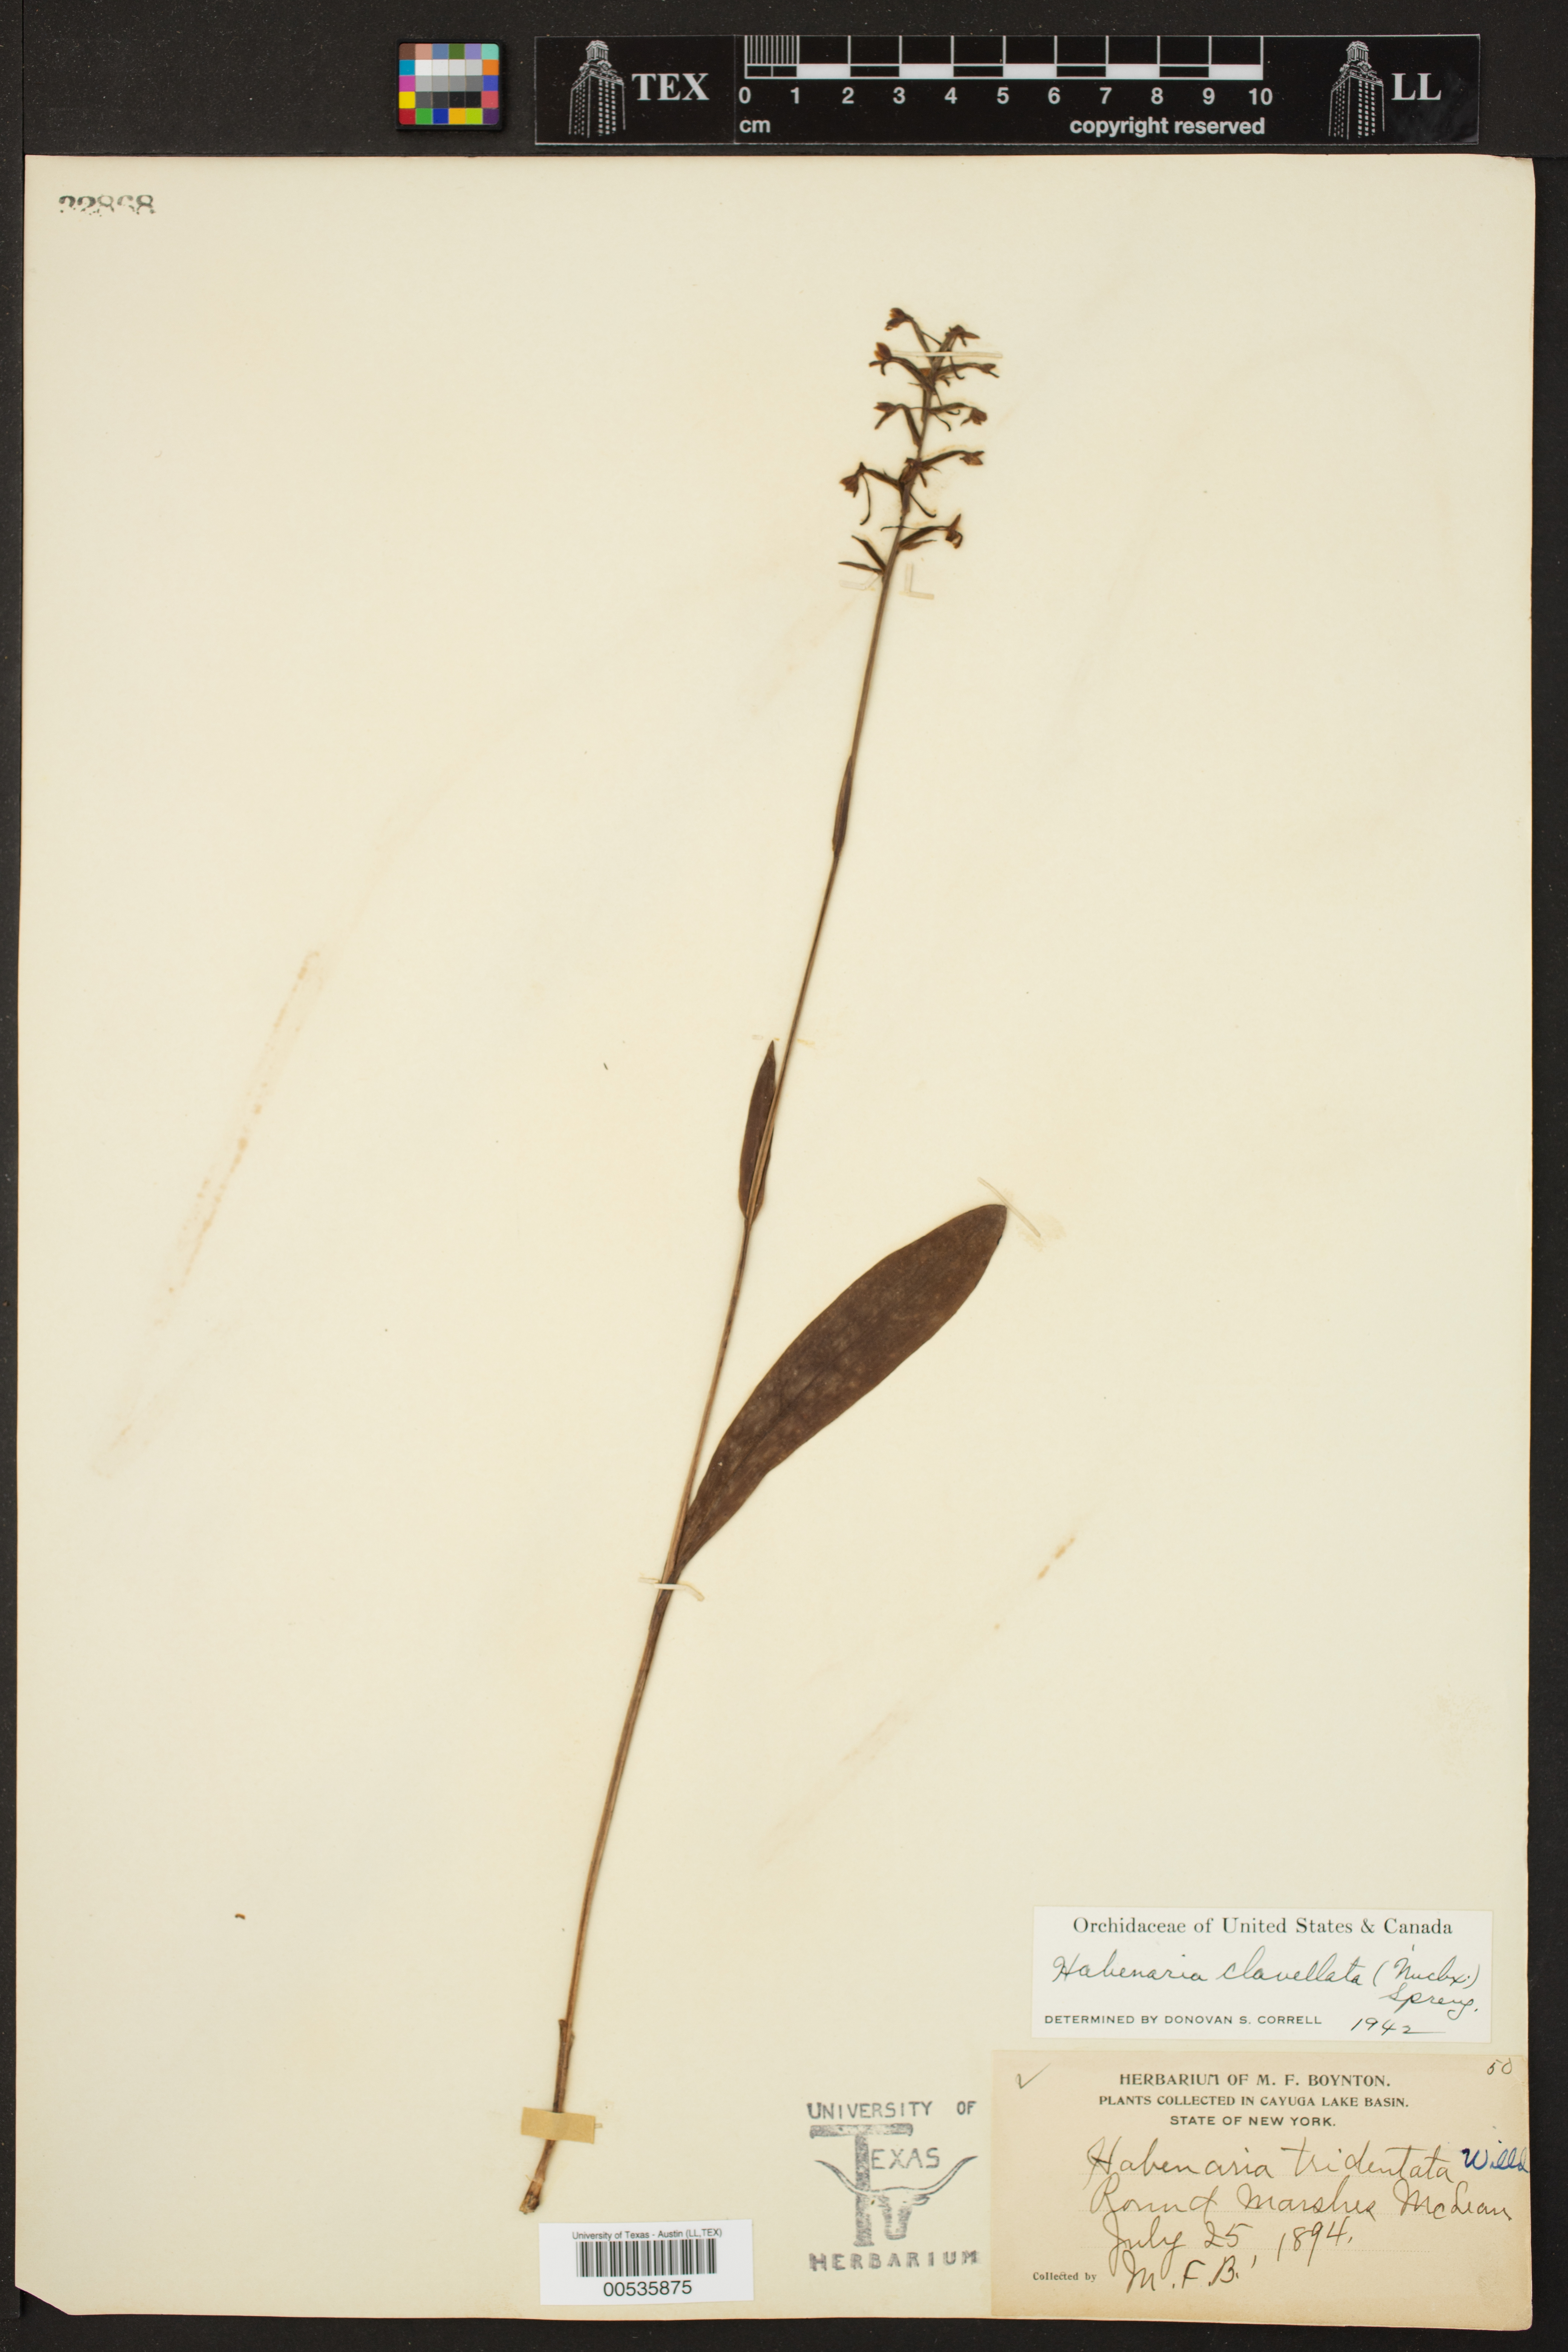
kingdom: Plantae
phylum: Tracheophyta
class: Liliopsida
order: Asparagales
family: Orchidaceae
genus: Platanthera
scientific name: Platanthera clavellata
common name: Club-spur orchid
